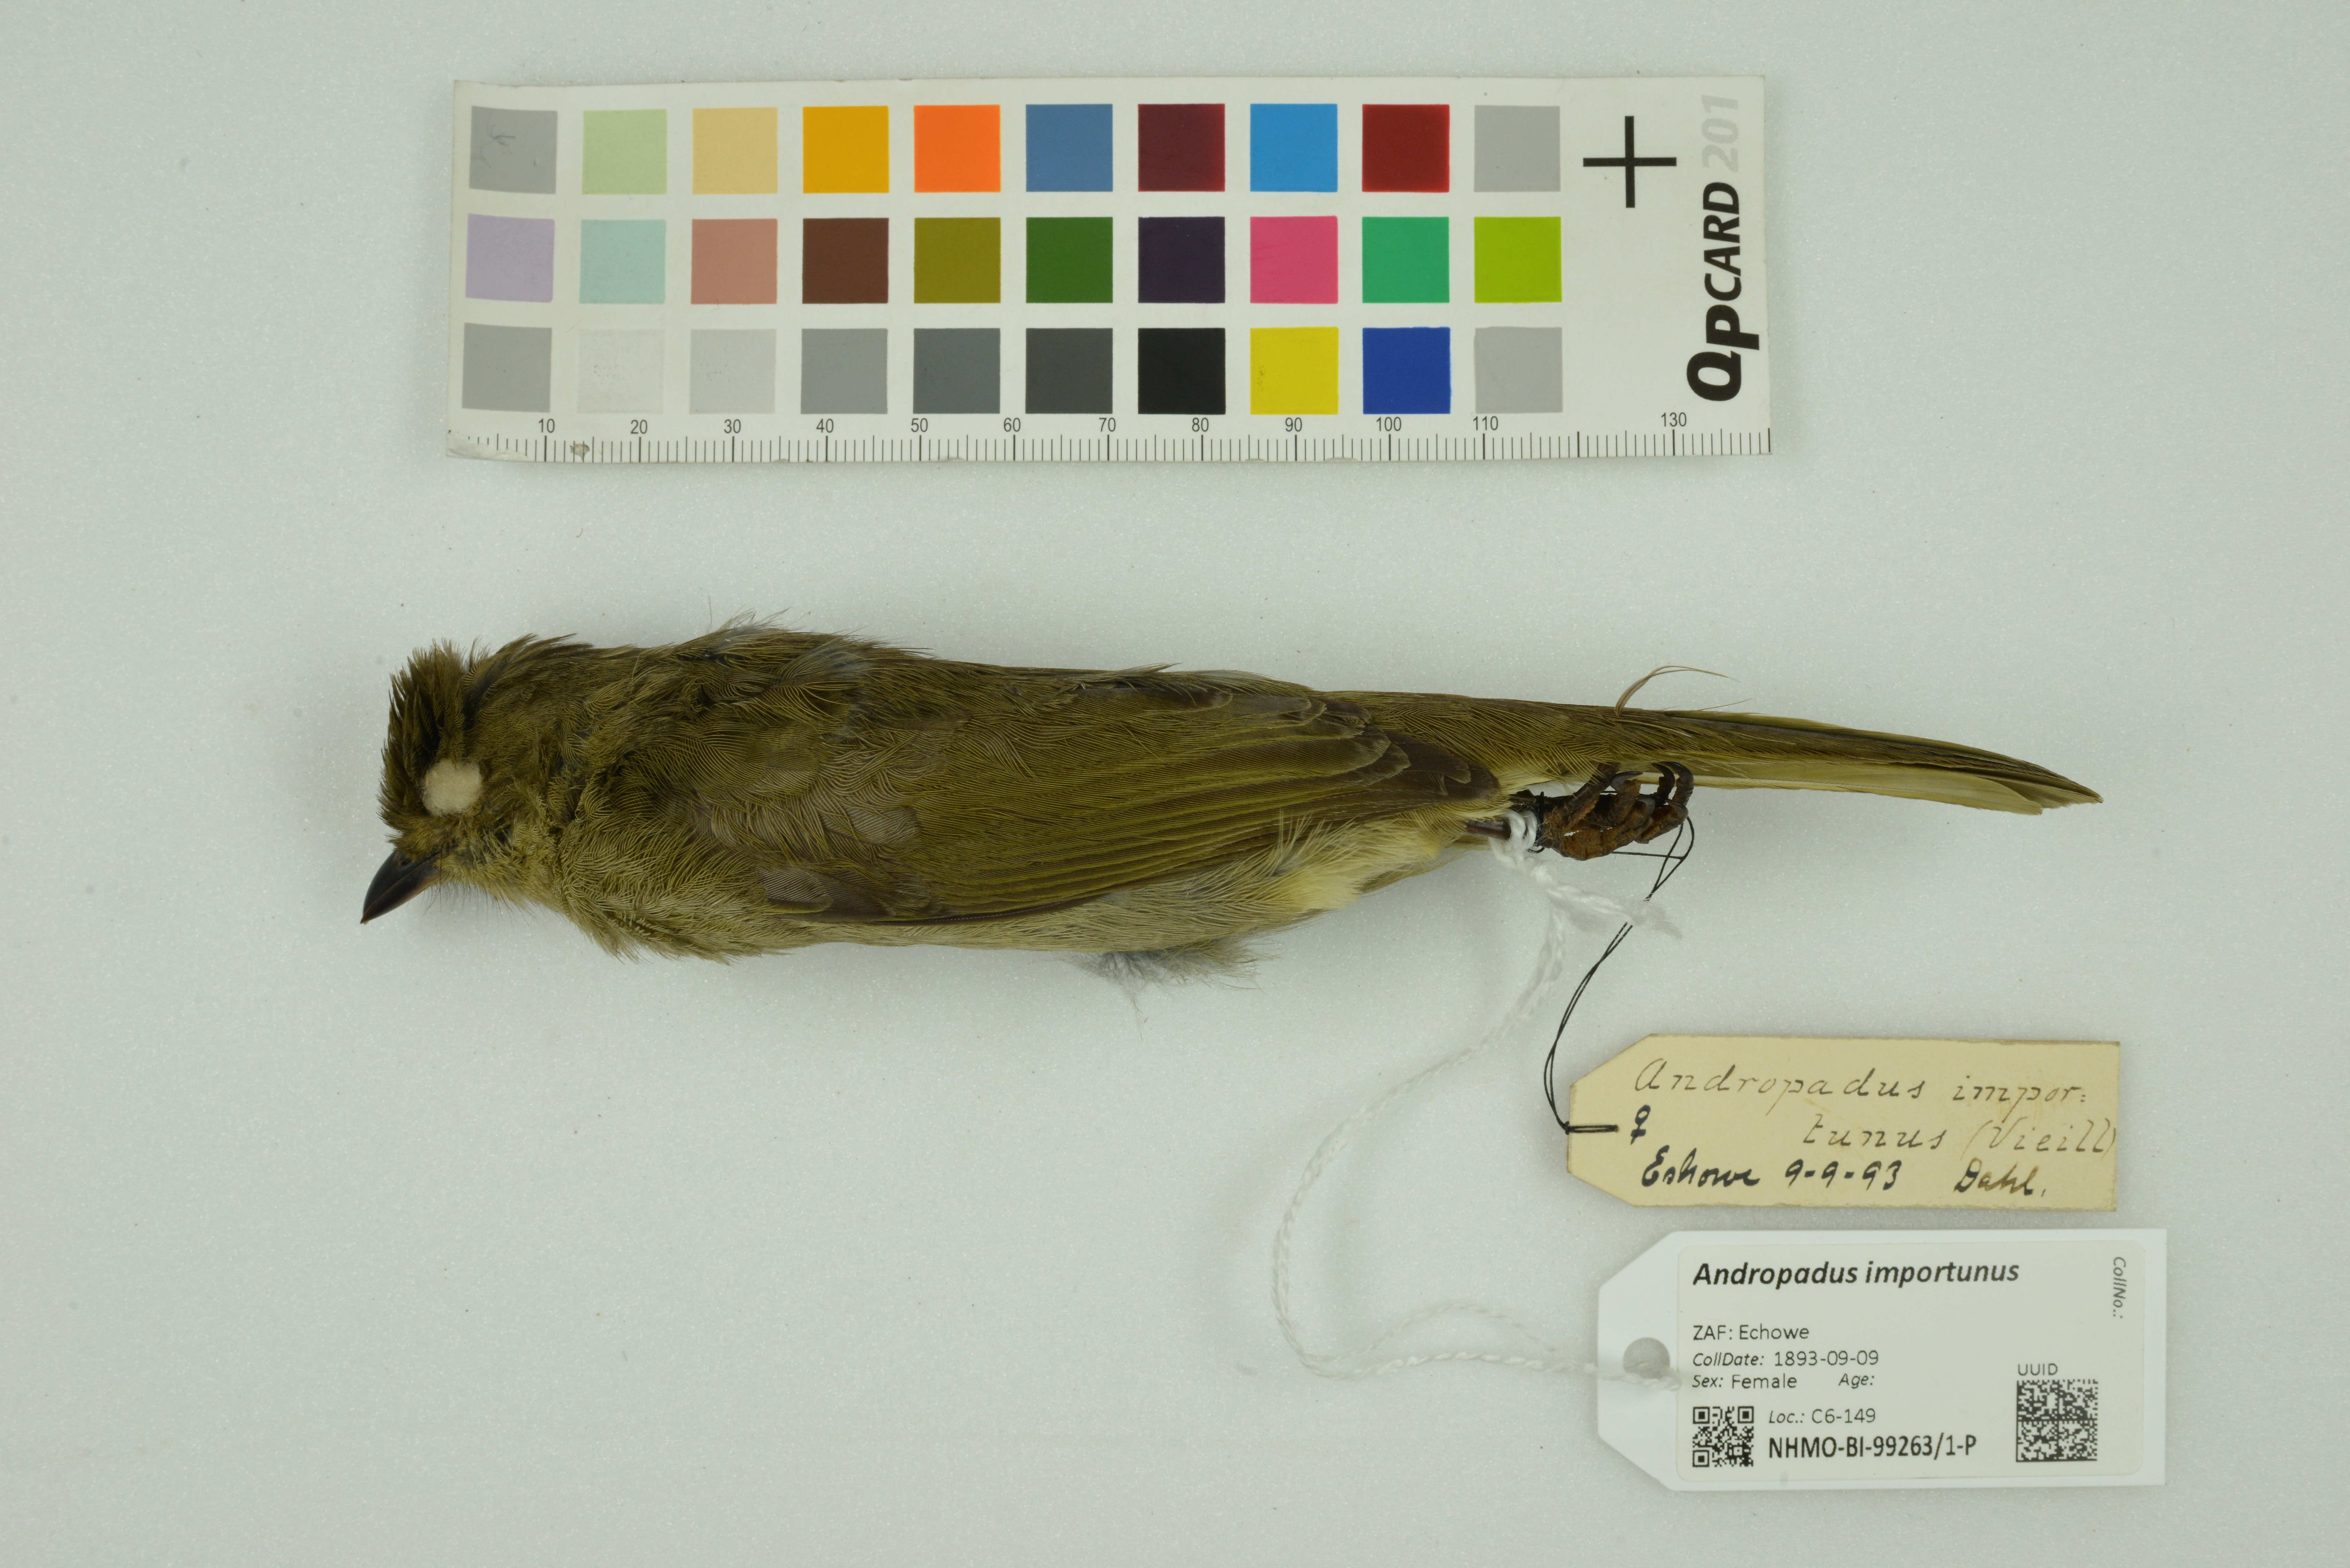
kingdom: Animalia
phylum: Chordata
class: Aves
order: Passeriformes
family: Pycnonotidae
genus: Andropadus
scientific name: Andropadus importunus
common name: Sombre greenbul
